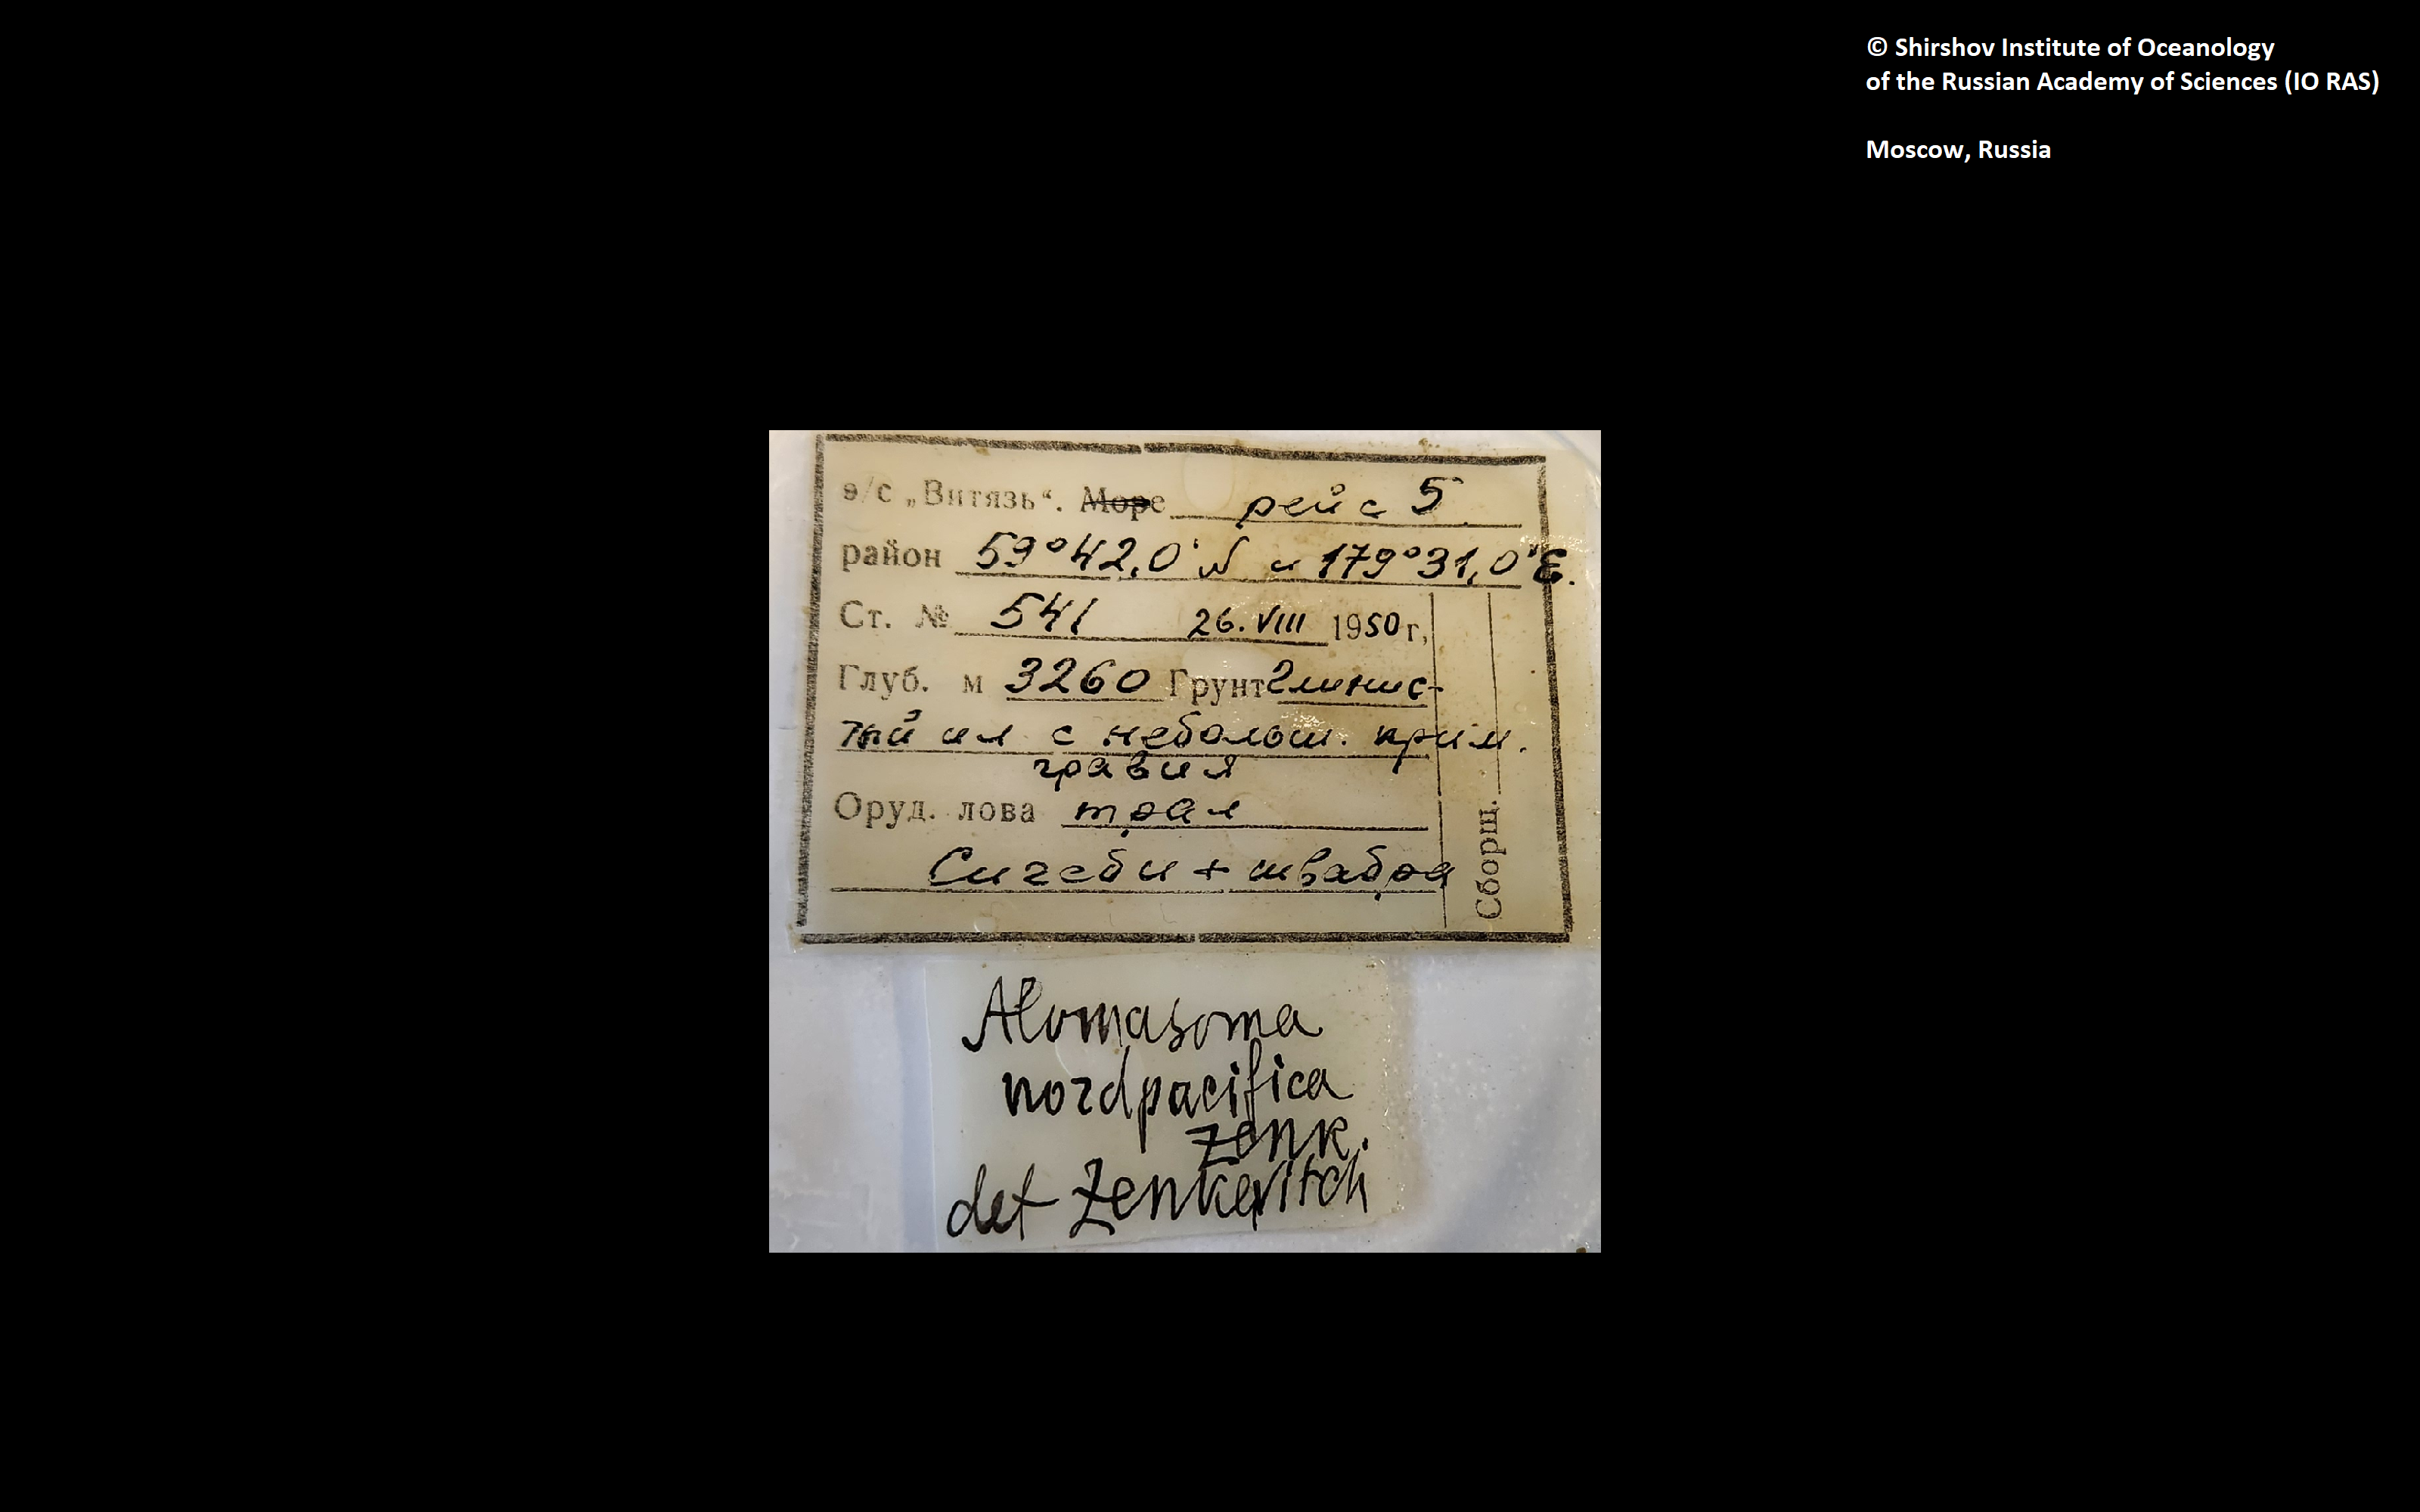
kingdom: Animalia
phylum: Annelida
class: Polychaeta
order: Echiuroidea
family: Bonelliidae
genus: Alomasoma
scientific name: Alomasoma nordpacificum
